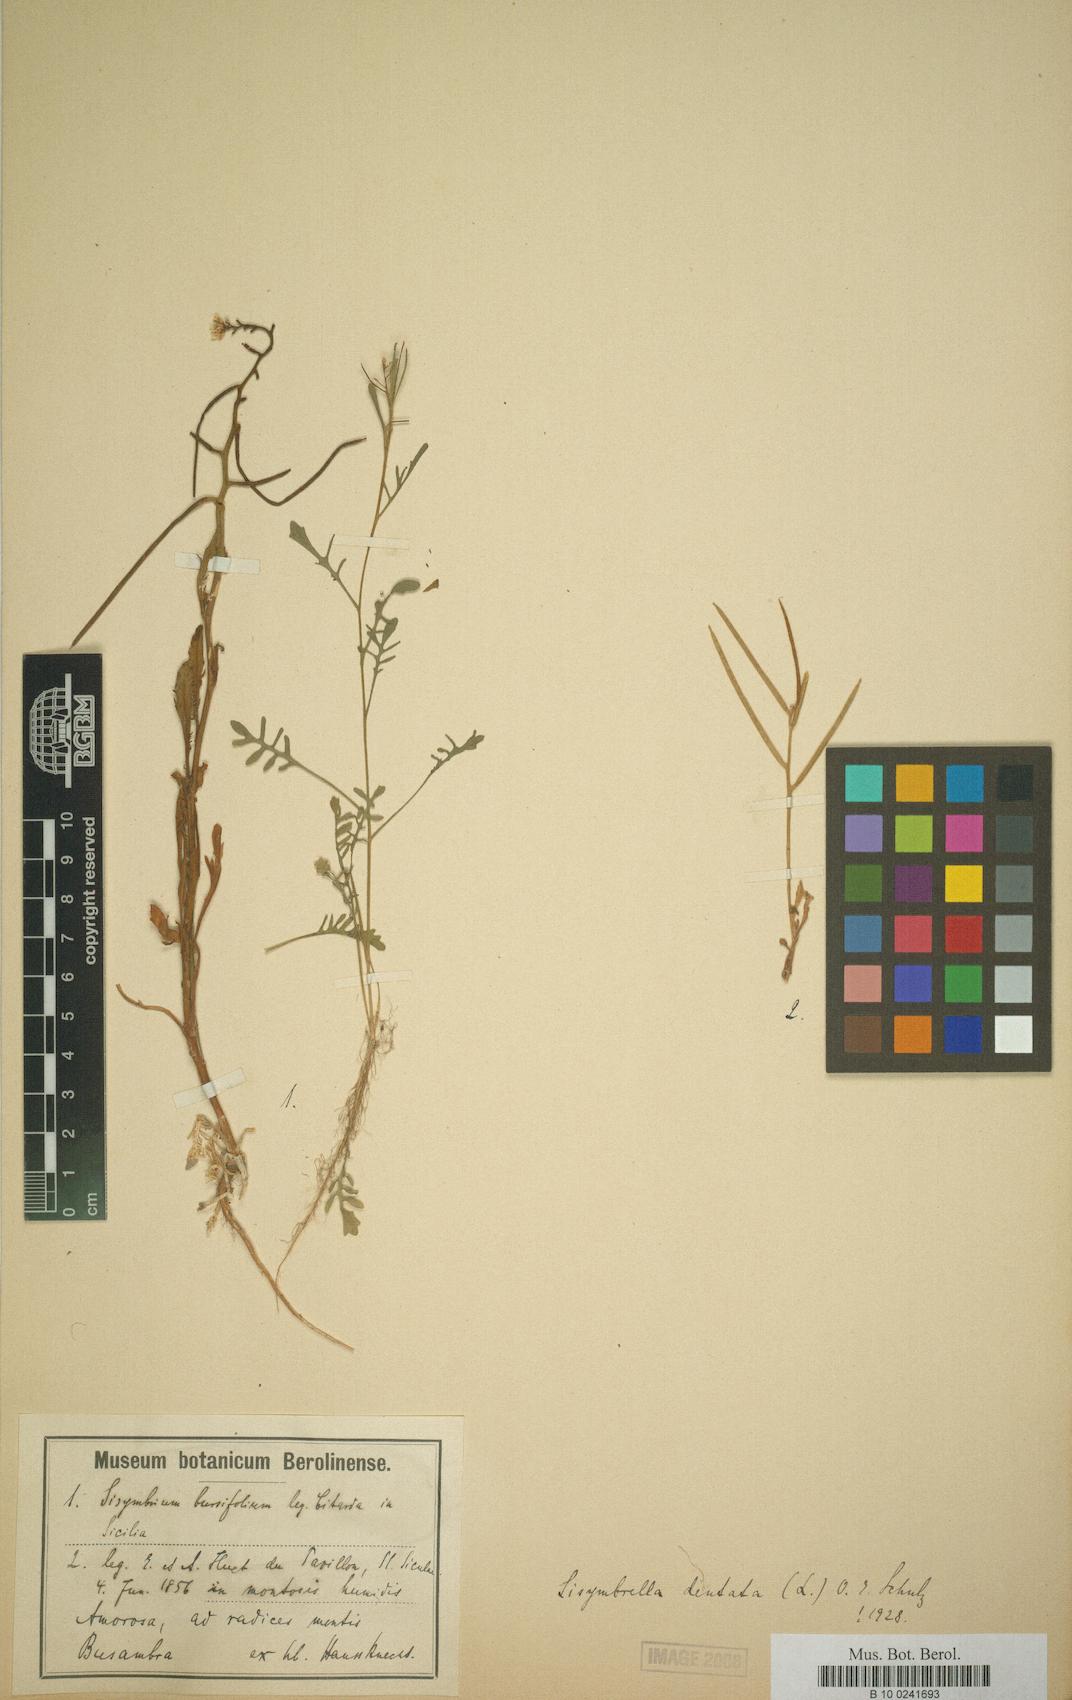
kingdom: Plantae
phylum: Tracheophyta
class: Magnoliopsida
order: Brassicales
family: Brassicaceae
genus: Borodinia
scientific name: Borodinia dentata
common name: Short's rockcress
